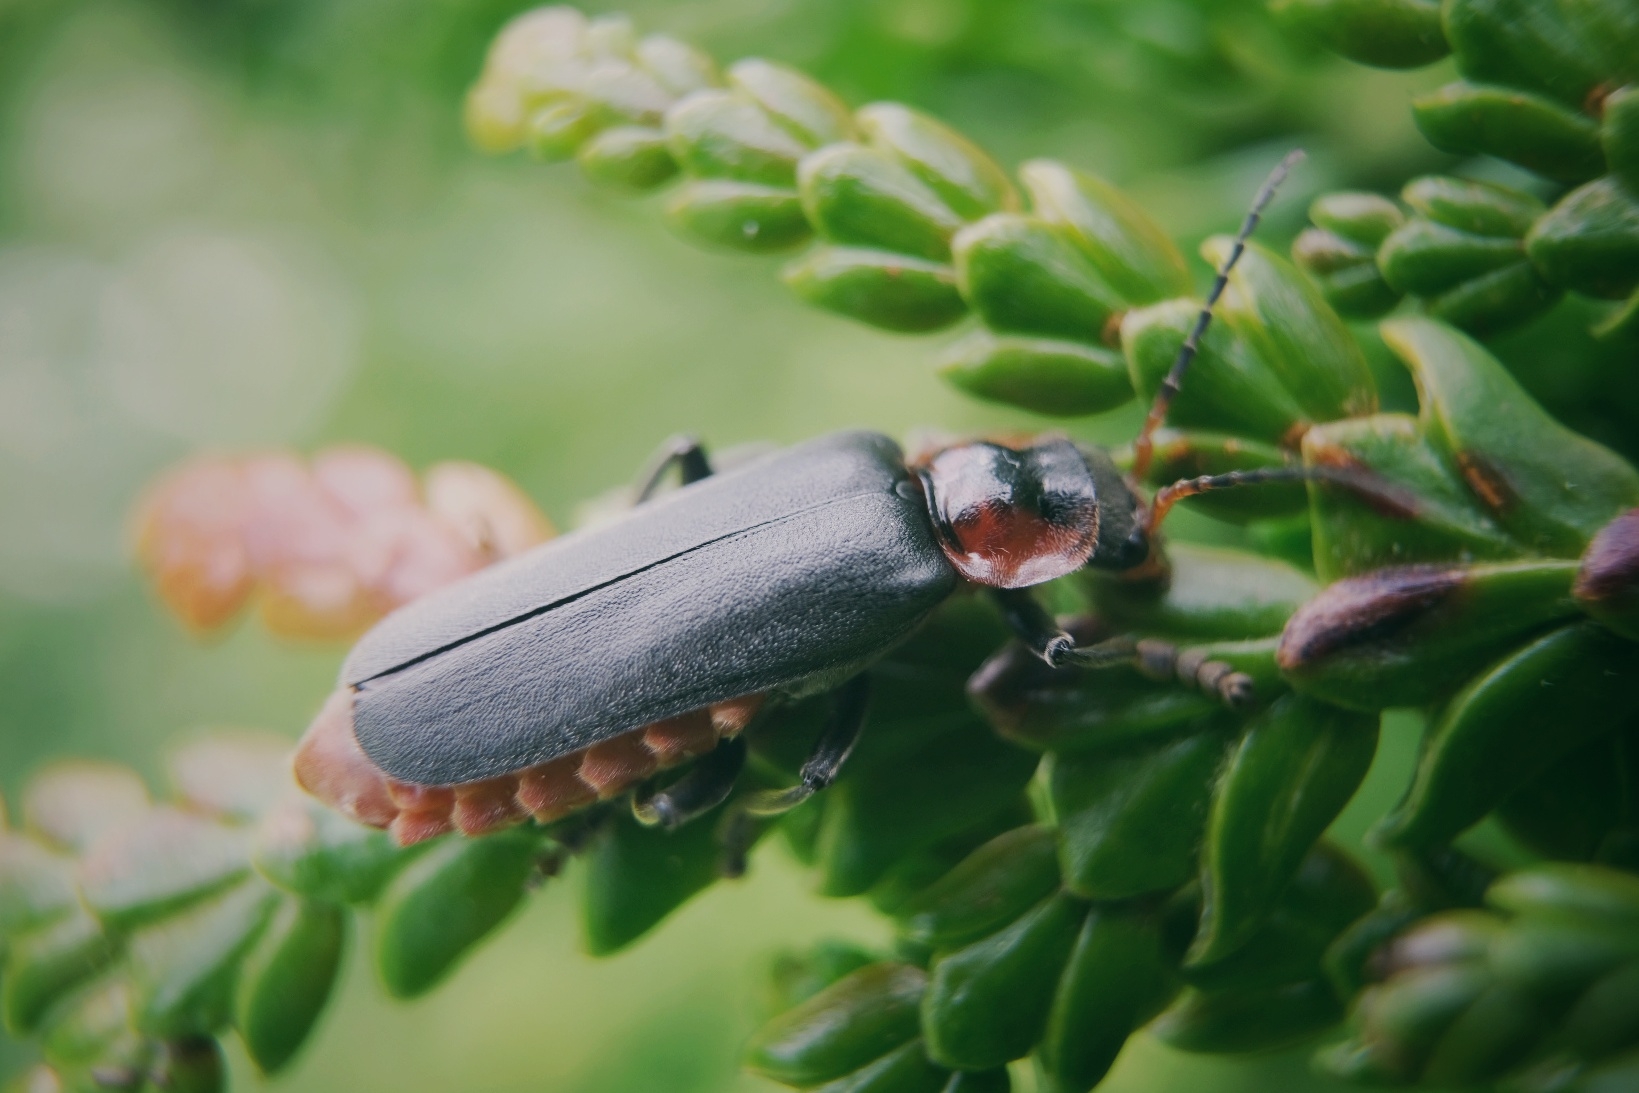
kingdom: Animalia
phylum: Arthropoda
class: Insecta
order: Coleoptera
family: Cantharidae
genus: Cantharis
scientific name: Cantharis fusca
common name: Stor blødvinge
